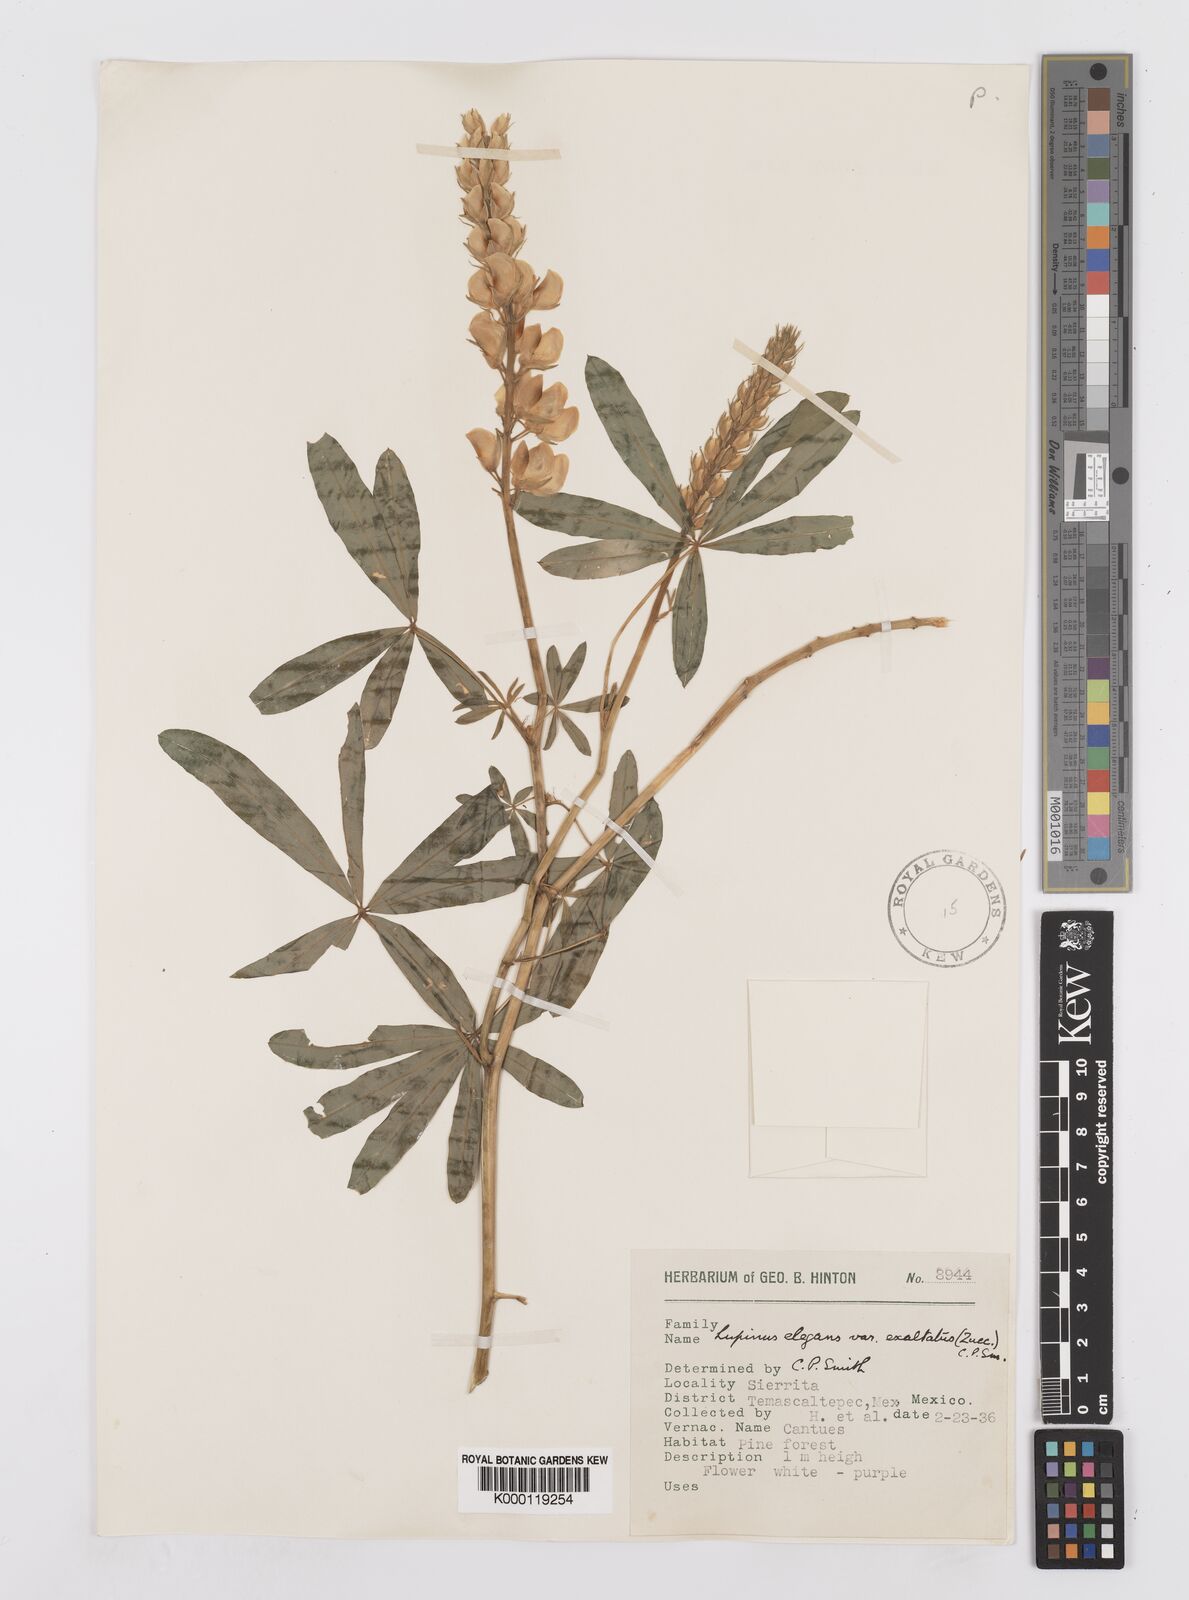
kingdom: Plantae
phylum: Tracheophyta
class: Magnoliopsida
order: Fabales
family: Fabaceae
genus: Lupinus
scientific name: Lupinus elegans
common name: Mexican lupine
